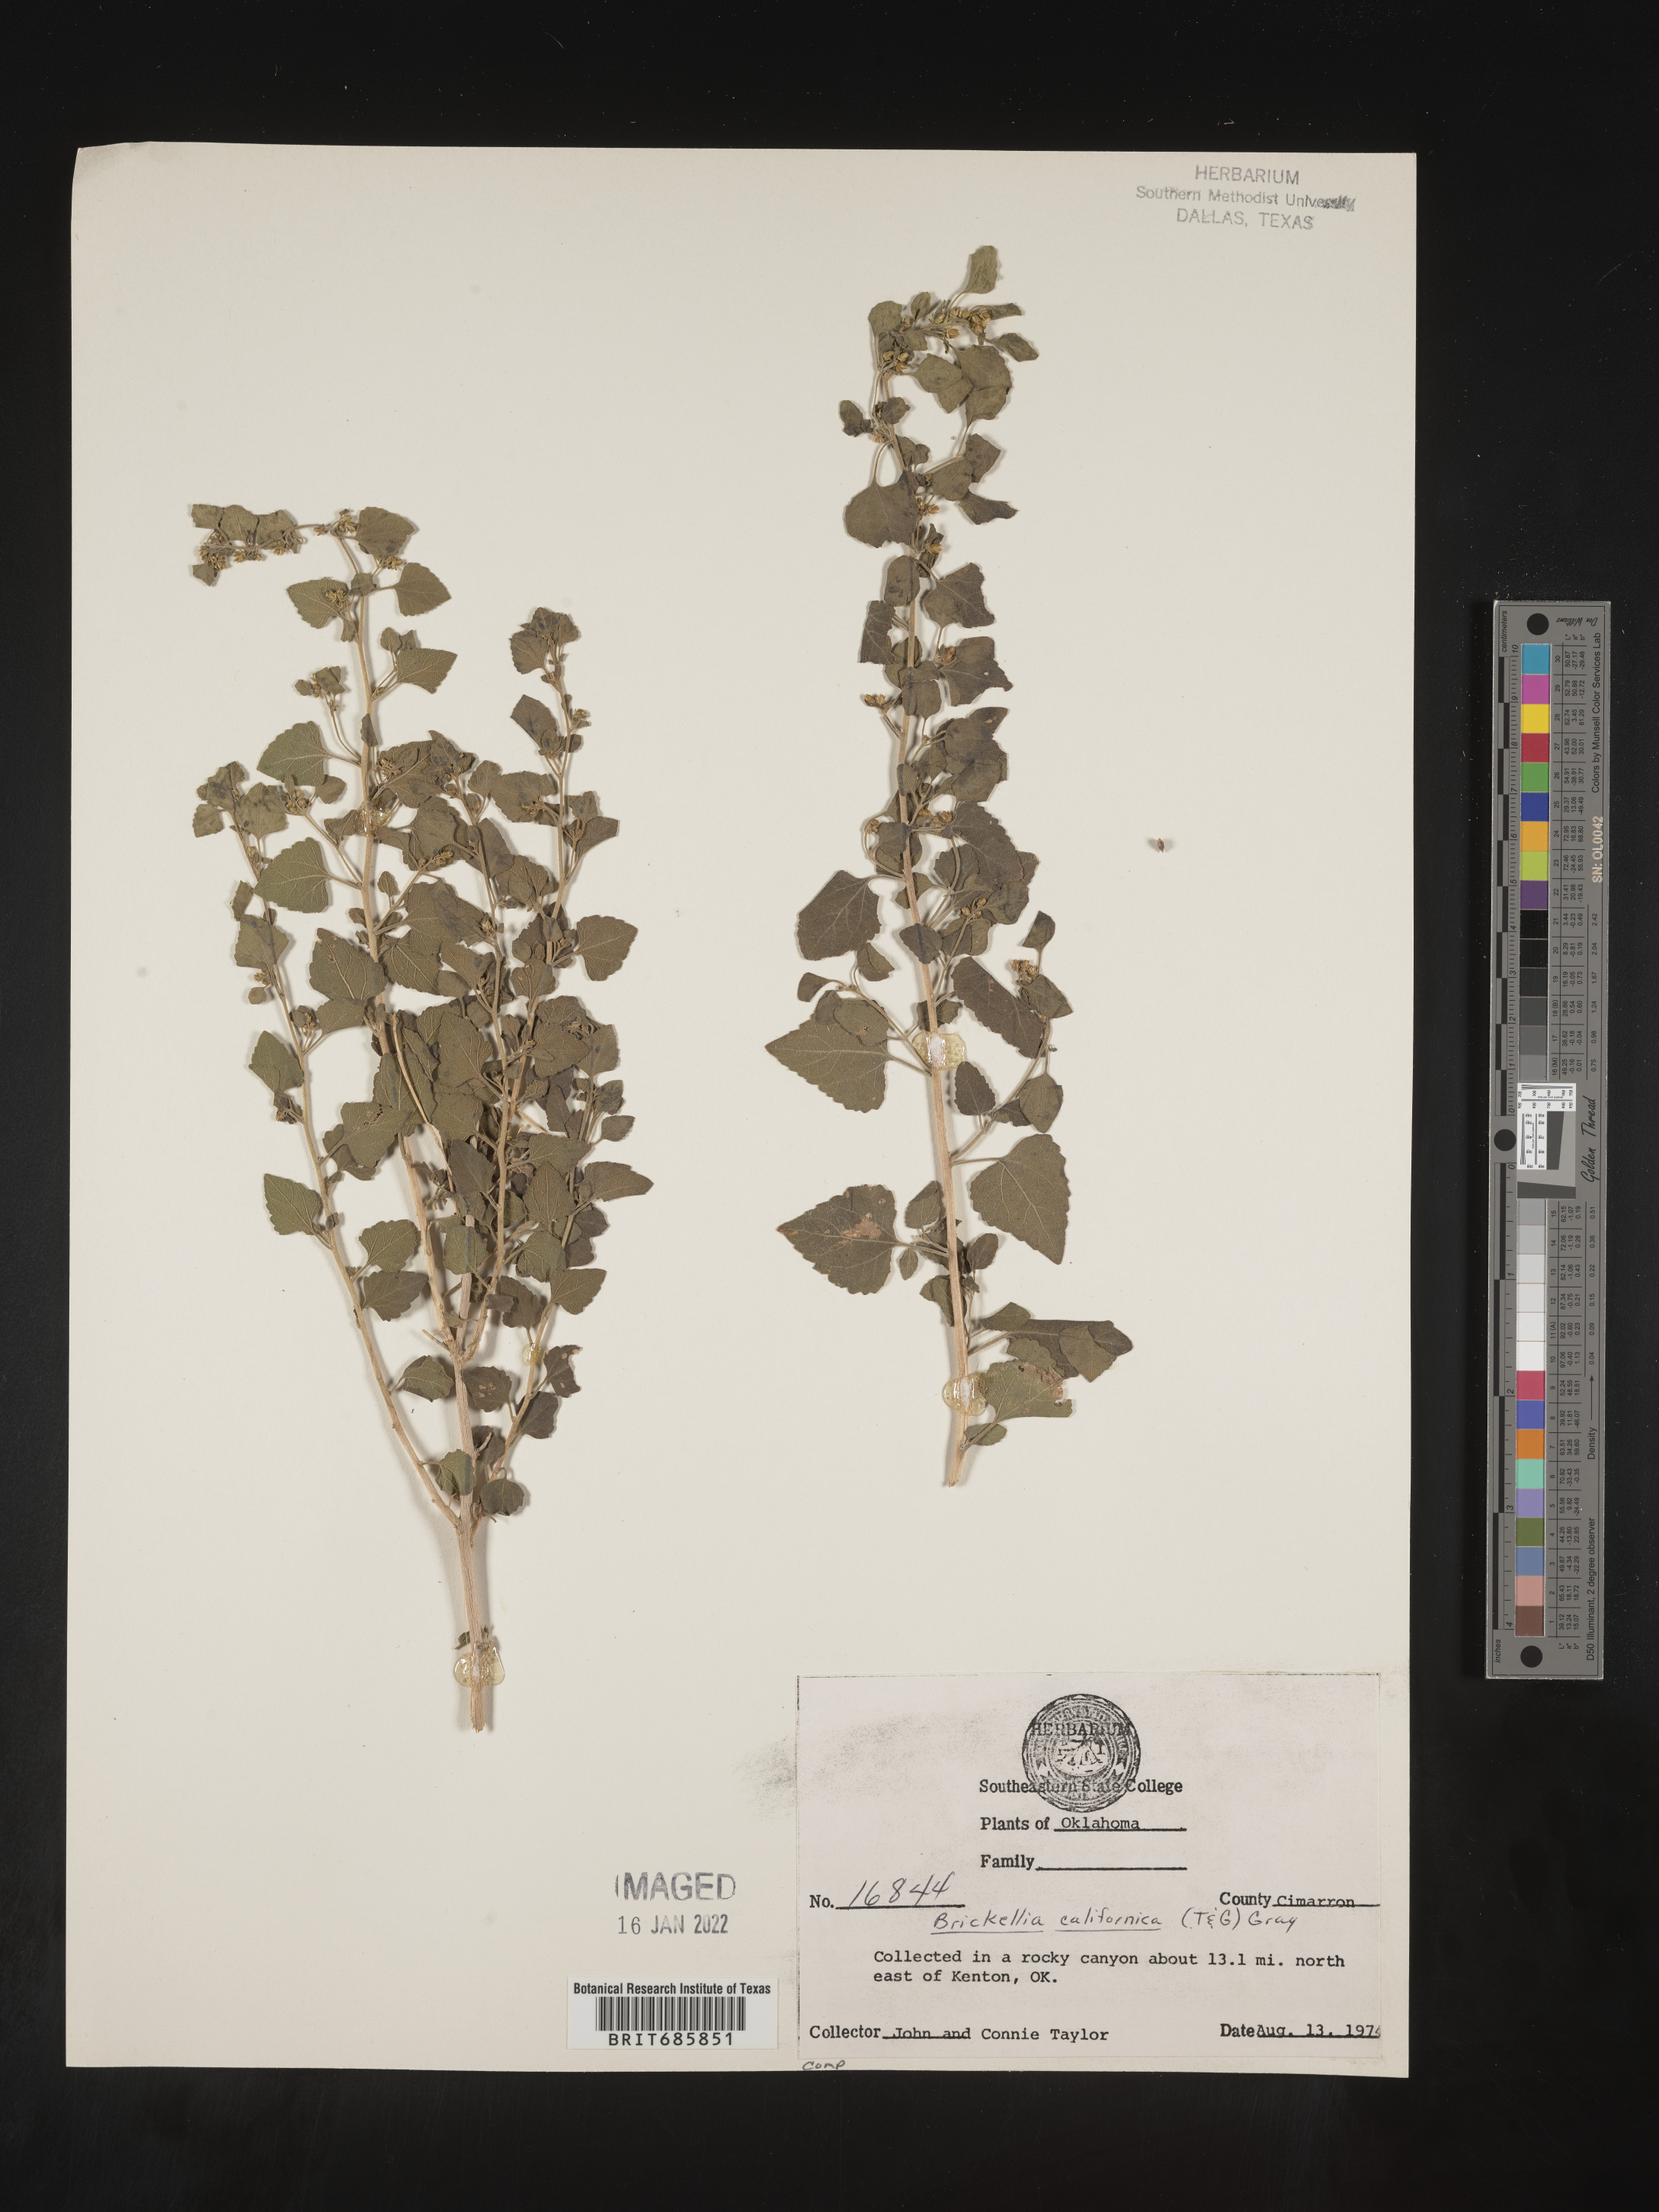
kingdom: Plantae
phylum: Tracheophyta
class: Magnoliopsida
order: Asterales
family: Asteraceae
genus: Brickellia
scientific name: Brickellia californica
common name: California brickellbush
